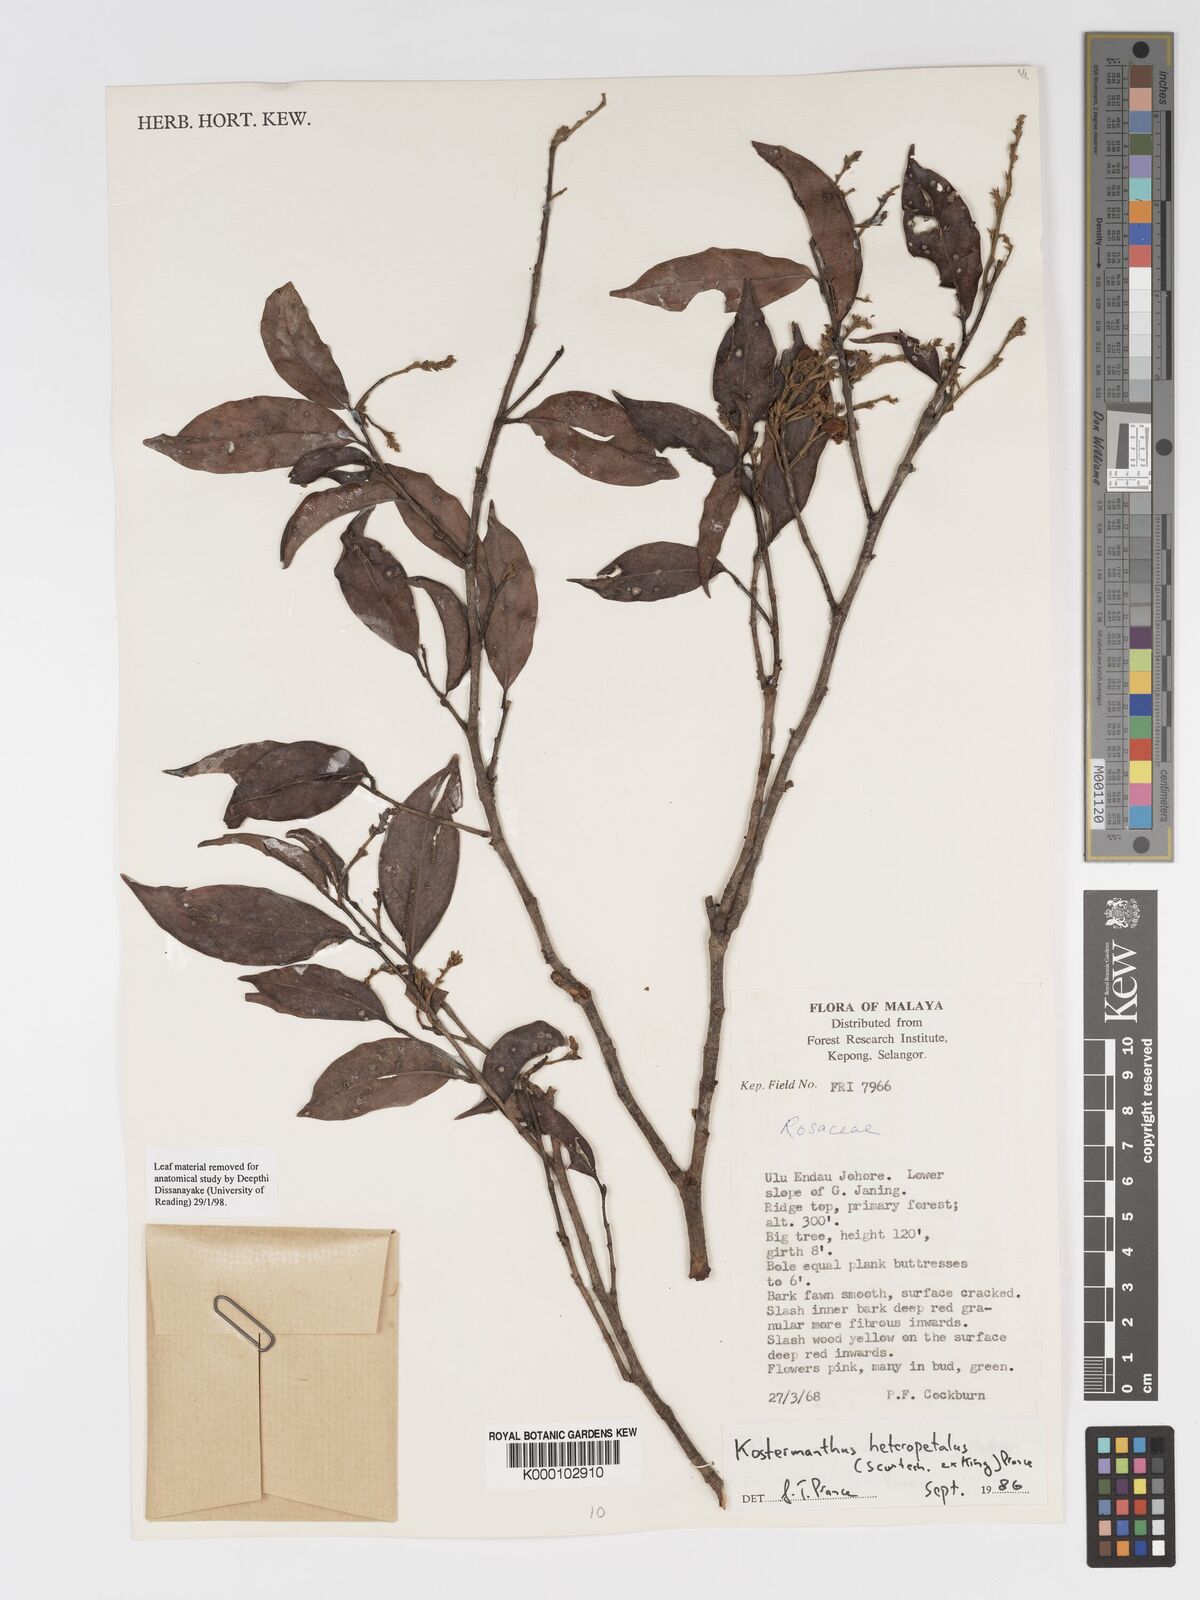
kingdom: Plantae
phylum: Tracheophyta
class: Magnoliopsida
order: Malpighiales
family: Chrysobalanaceae
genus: Kostermanthus
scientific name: Kostermanthus heteropetalus
